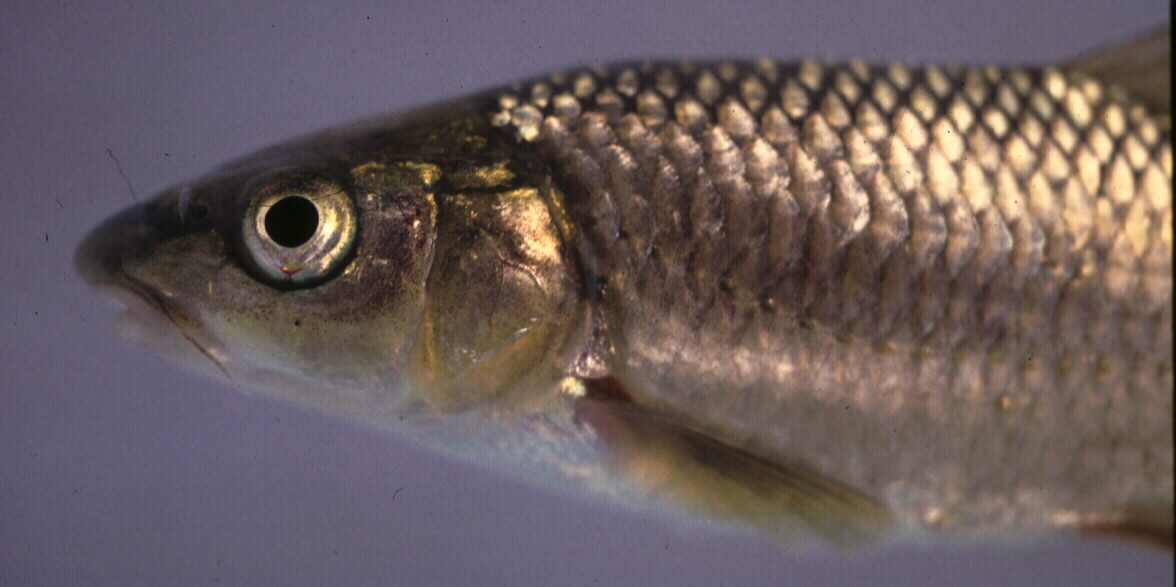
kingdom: Animalia
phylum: Chordata
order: Cypriniformes
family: Cyprinidae
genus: Labeobarbus
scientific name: Labeobarbus polylepis
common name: Bushveld smallscale yellowfish
